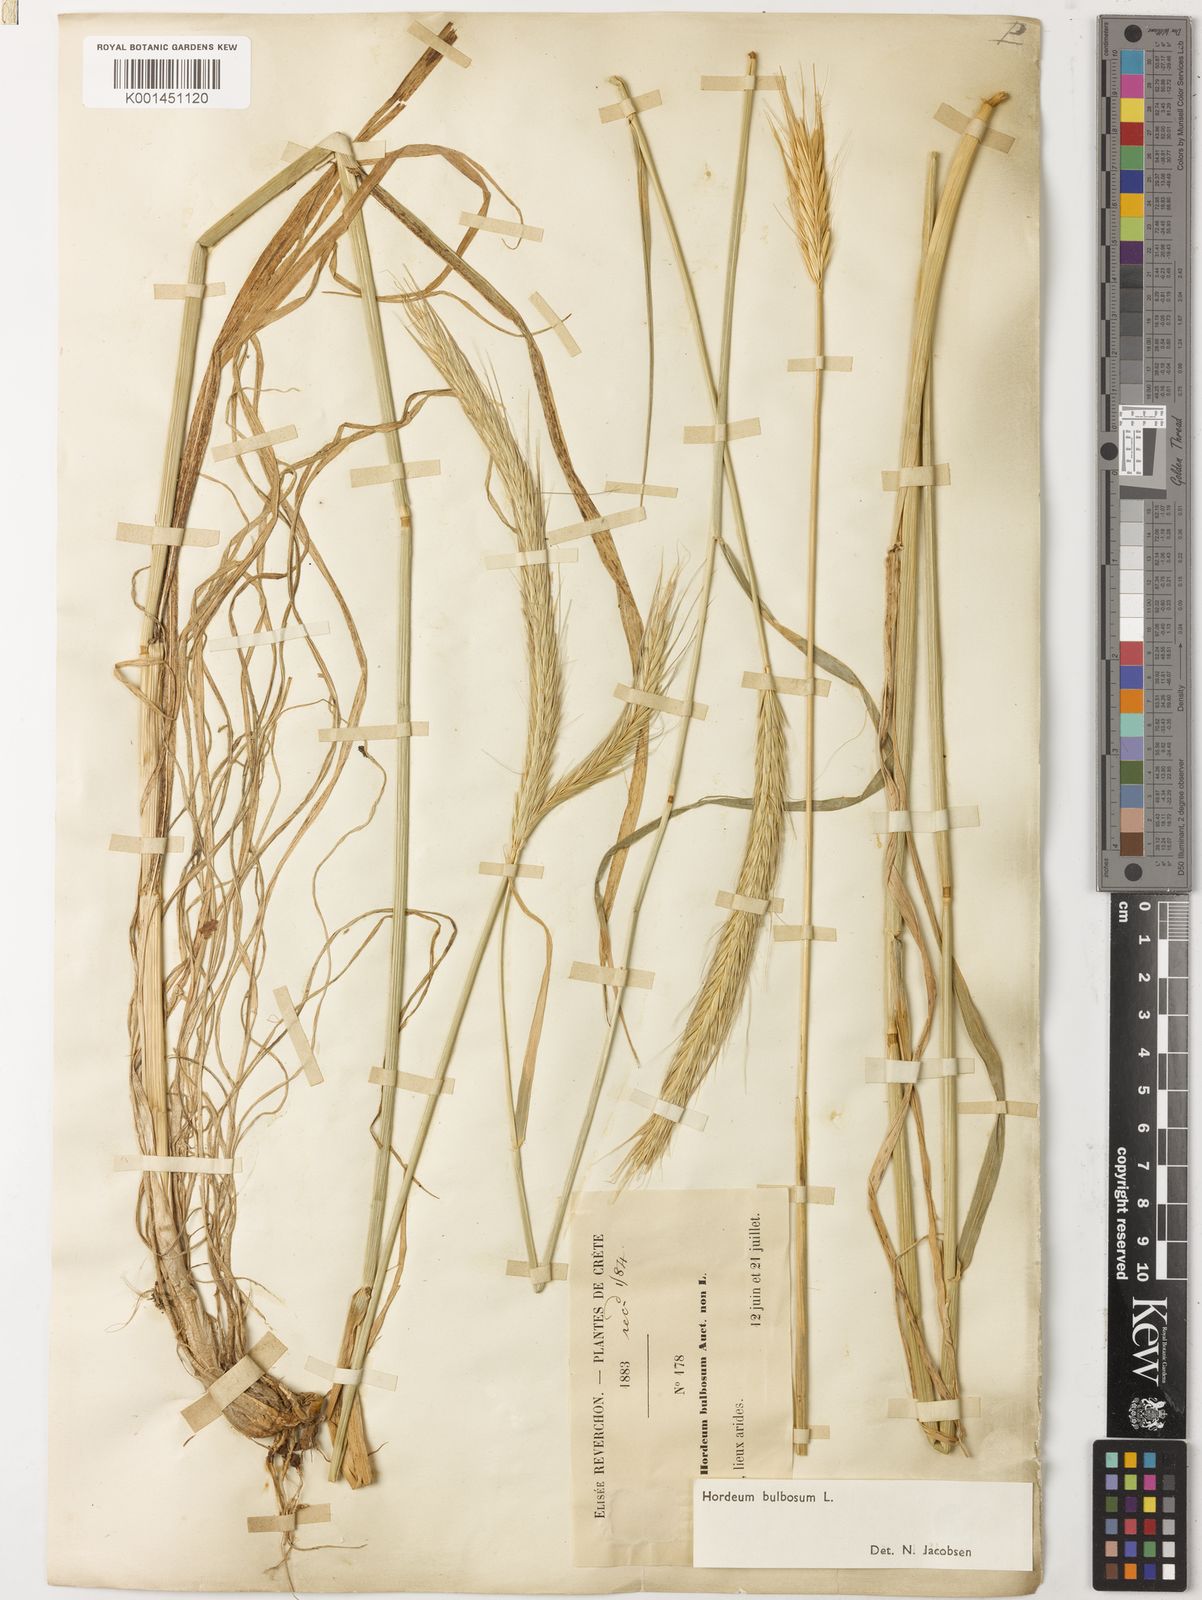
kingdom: Plantae
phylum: Tracheophyta
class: Liliopsida
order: Poales
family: Poaceae
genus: Hordeum
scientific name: Hordeum bulbosum
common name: Bulbous barley
